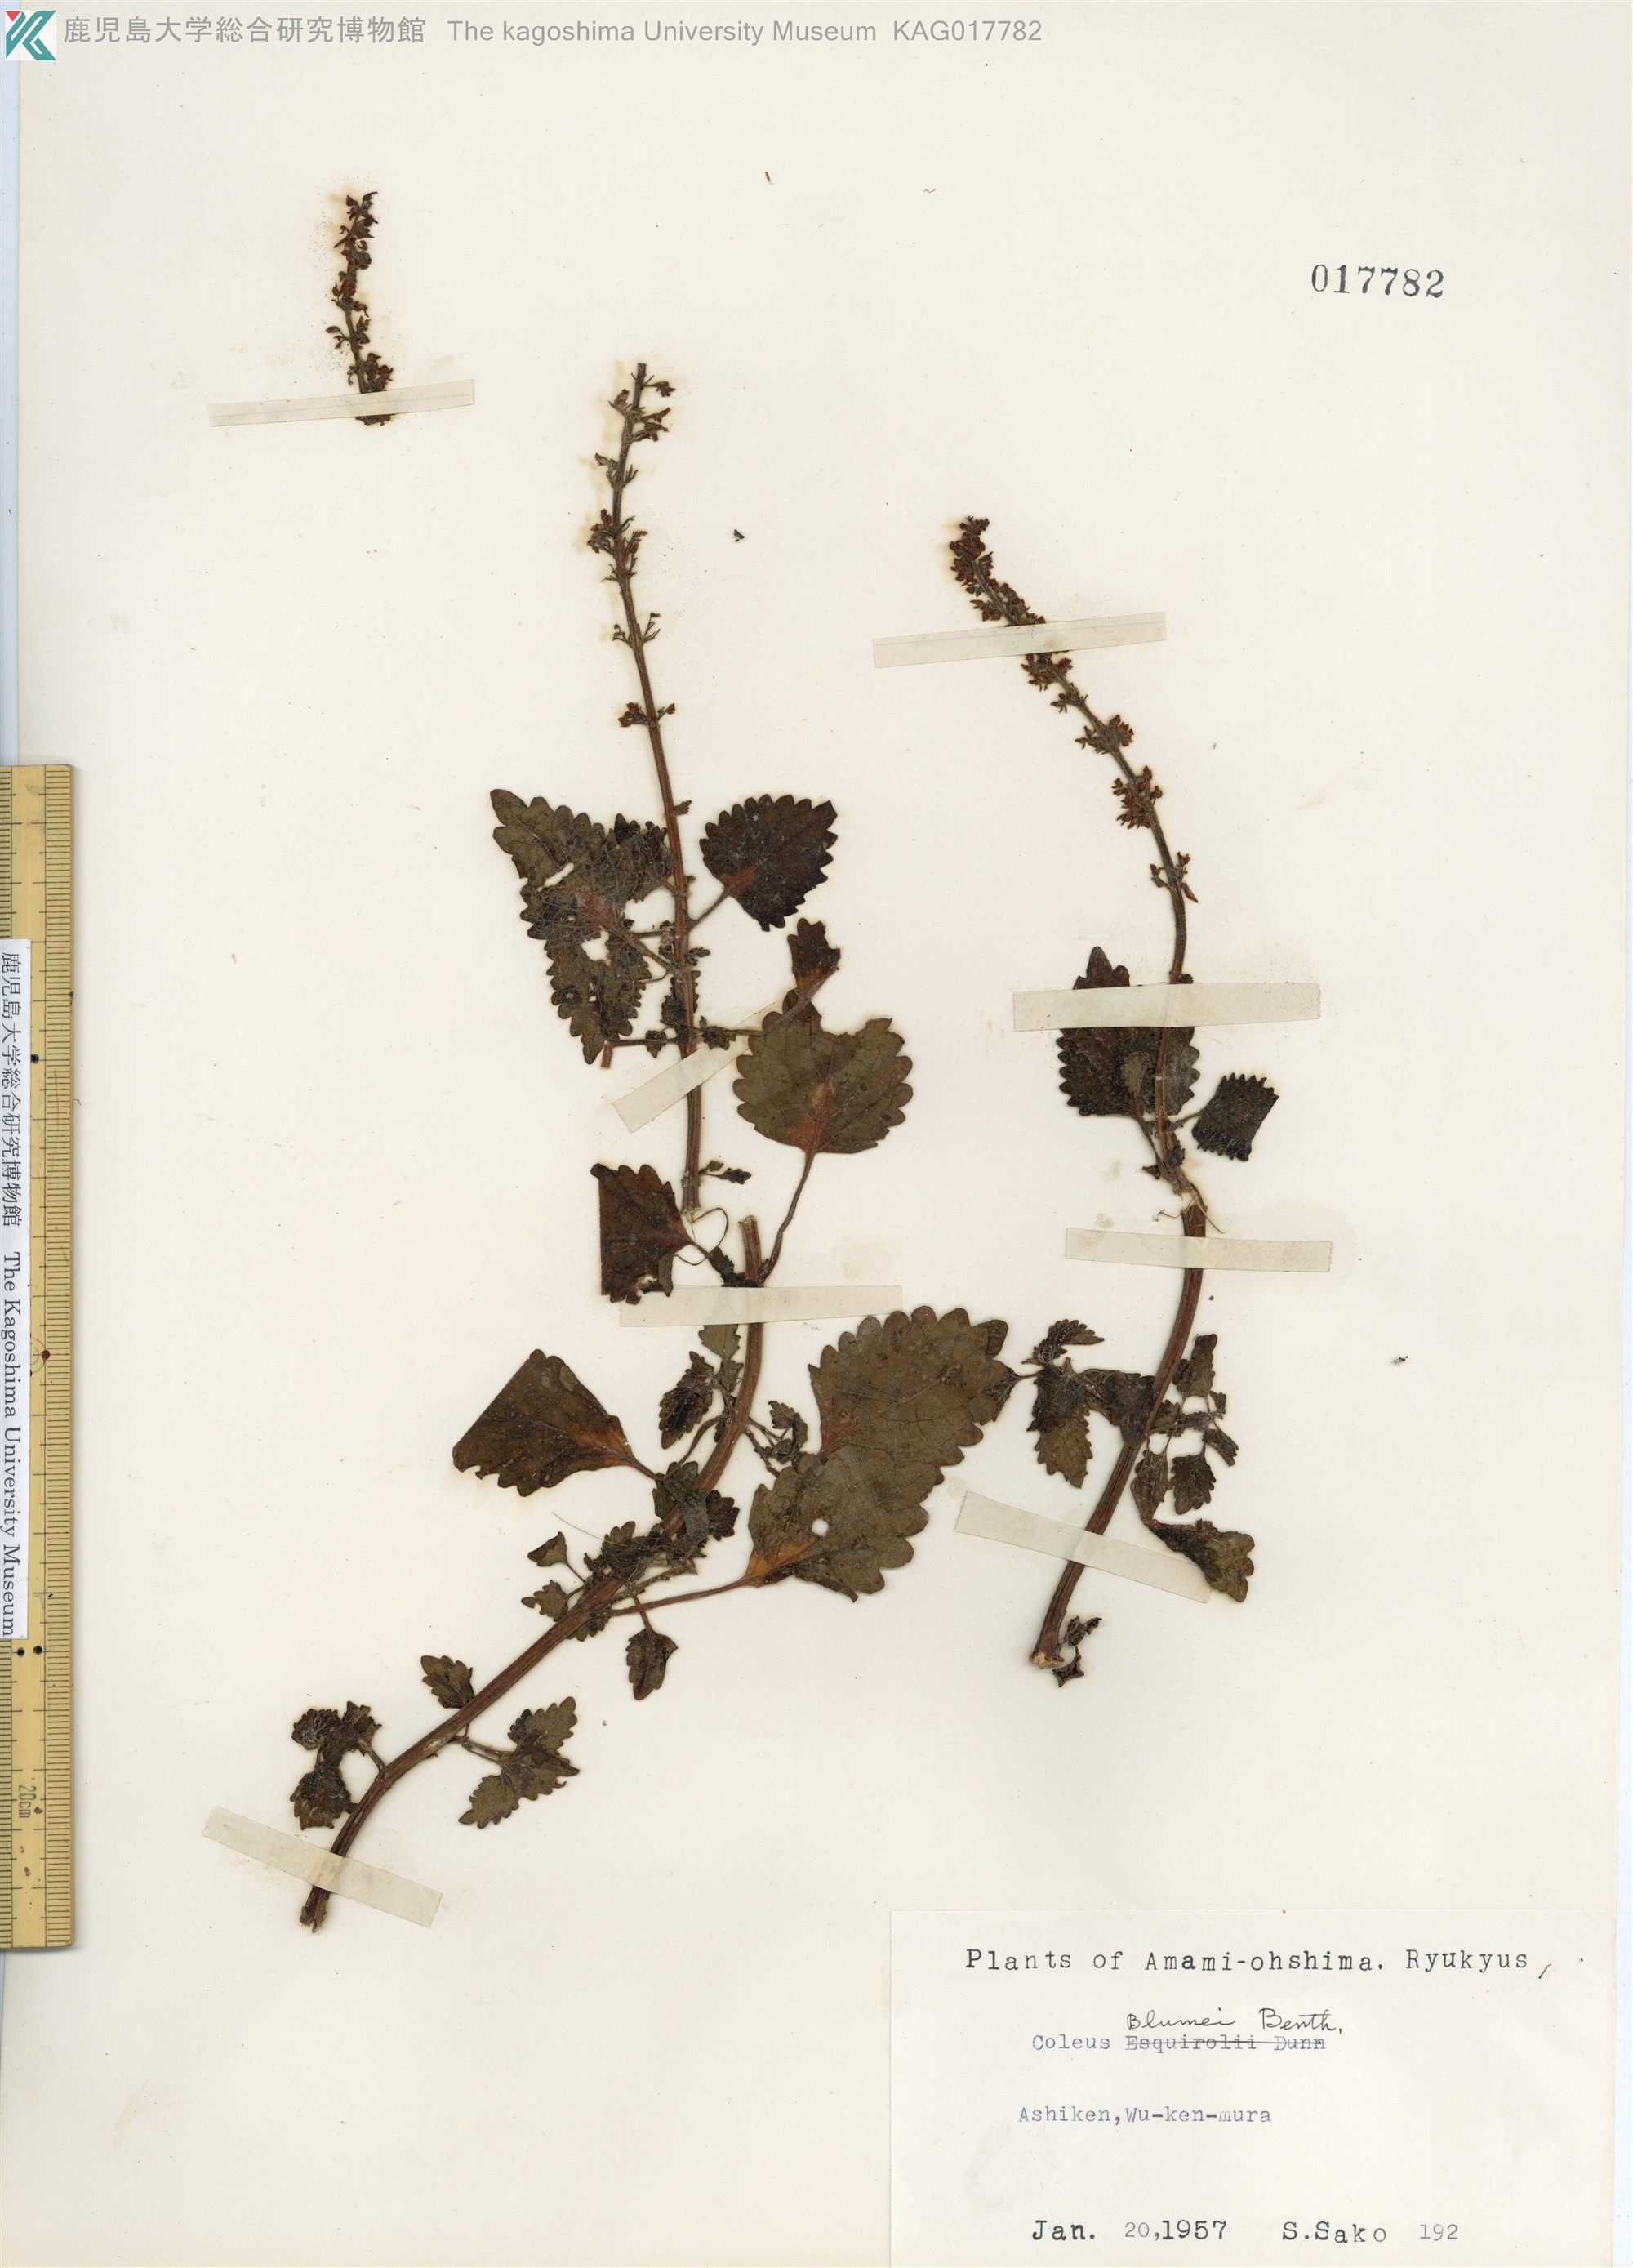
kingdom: Plantae
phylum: Tracheophyta
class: Magnoliopsida
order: Lamiales
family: Lamiaceae
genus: Coleus
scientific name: Coleus scutellarioides
